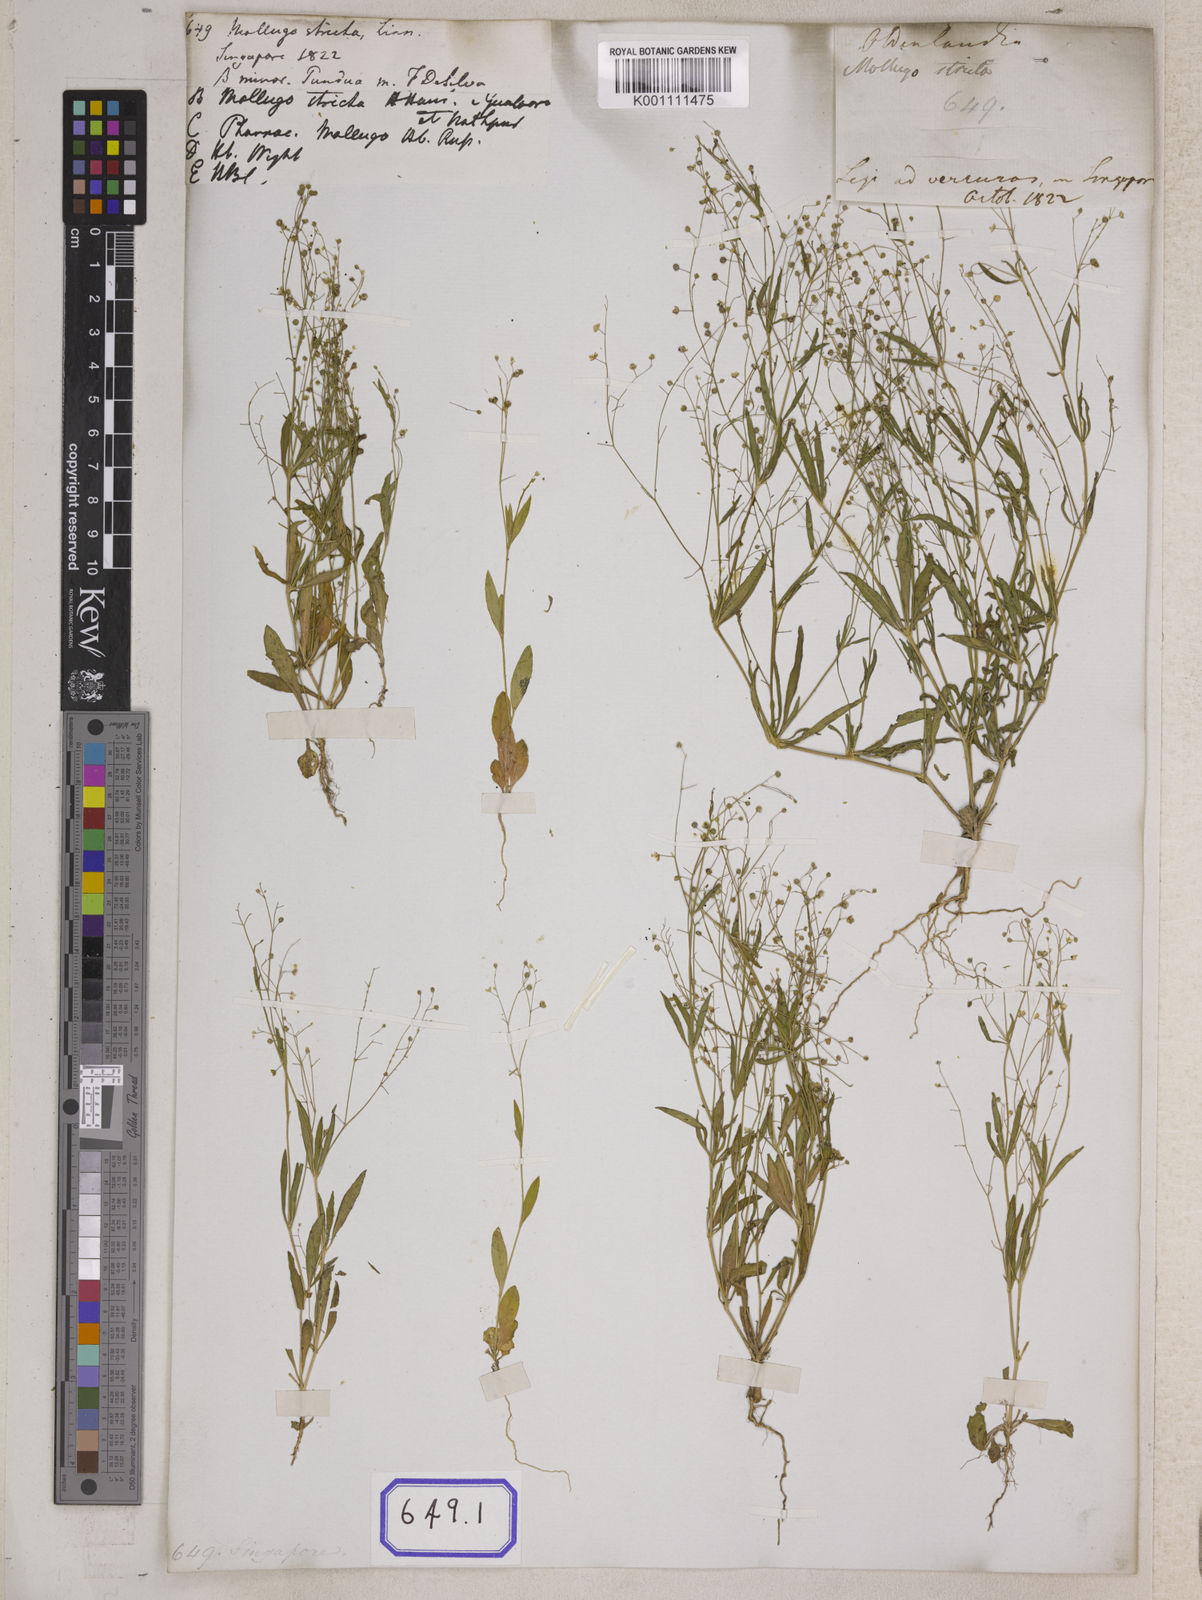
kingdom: Plantae
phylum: Tracheophyta
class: Magnoliopsida
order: Caryophyllales
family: Molluginaceae
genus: Trigastrotheca
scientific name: Trigastrotheca stricta
